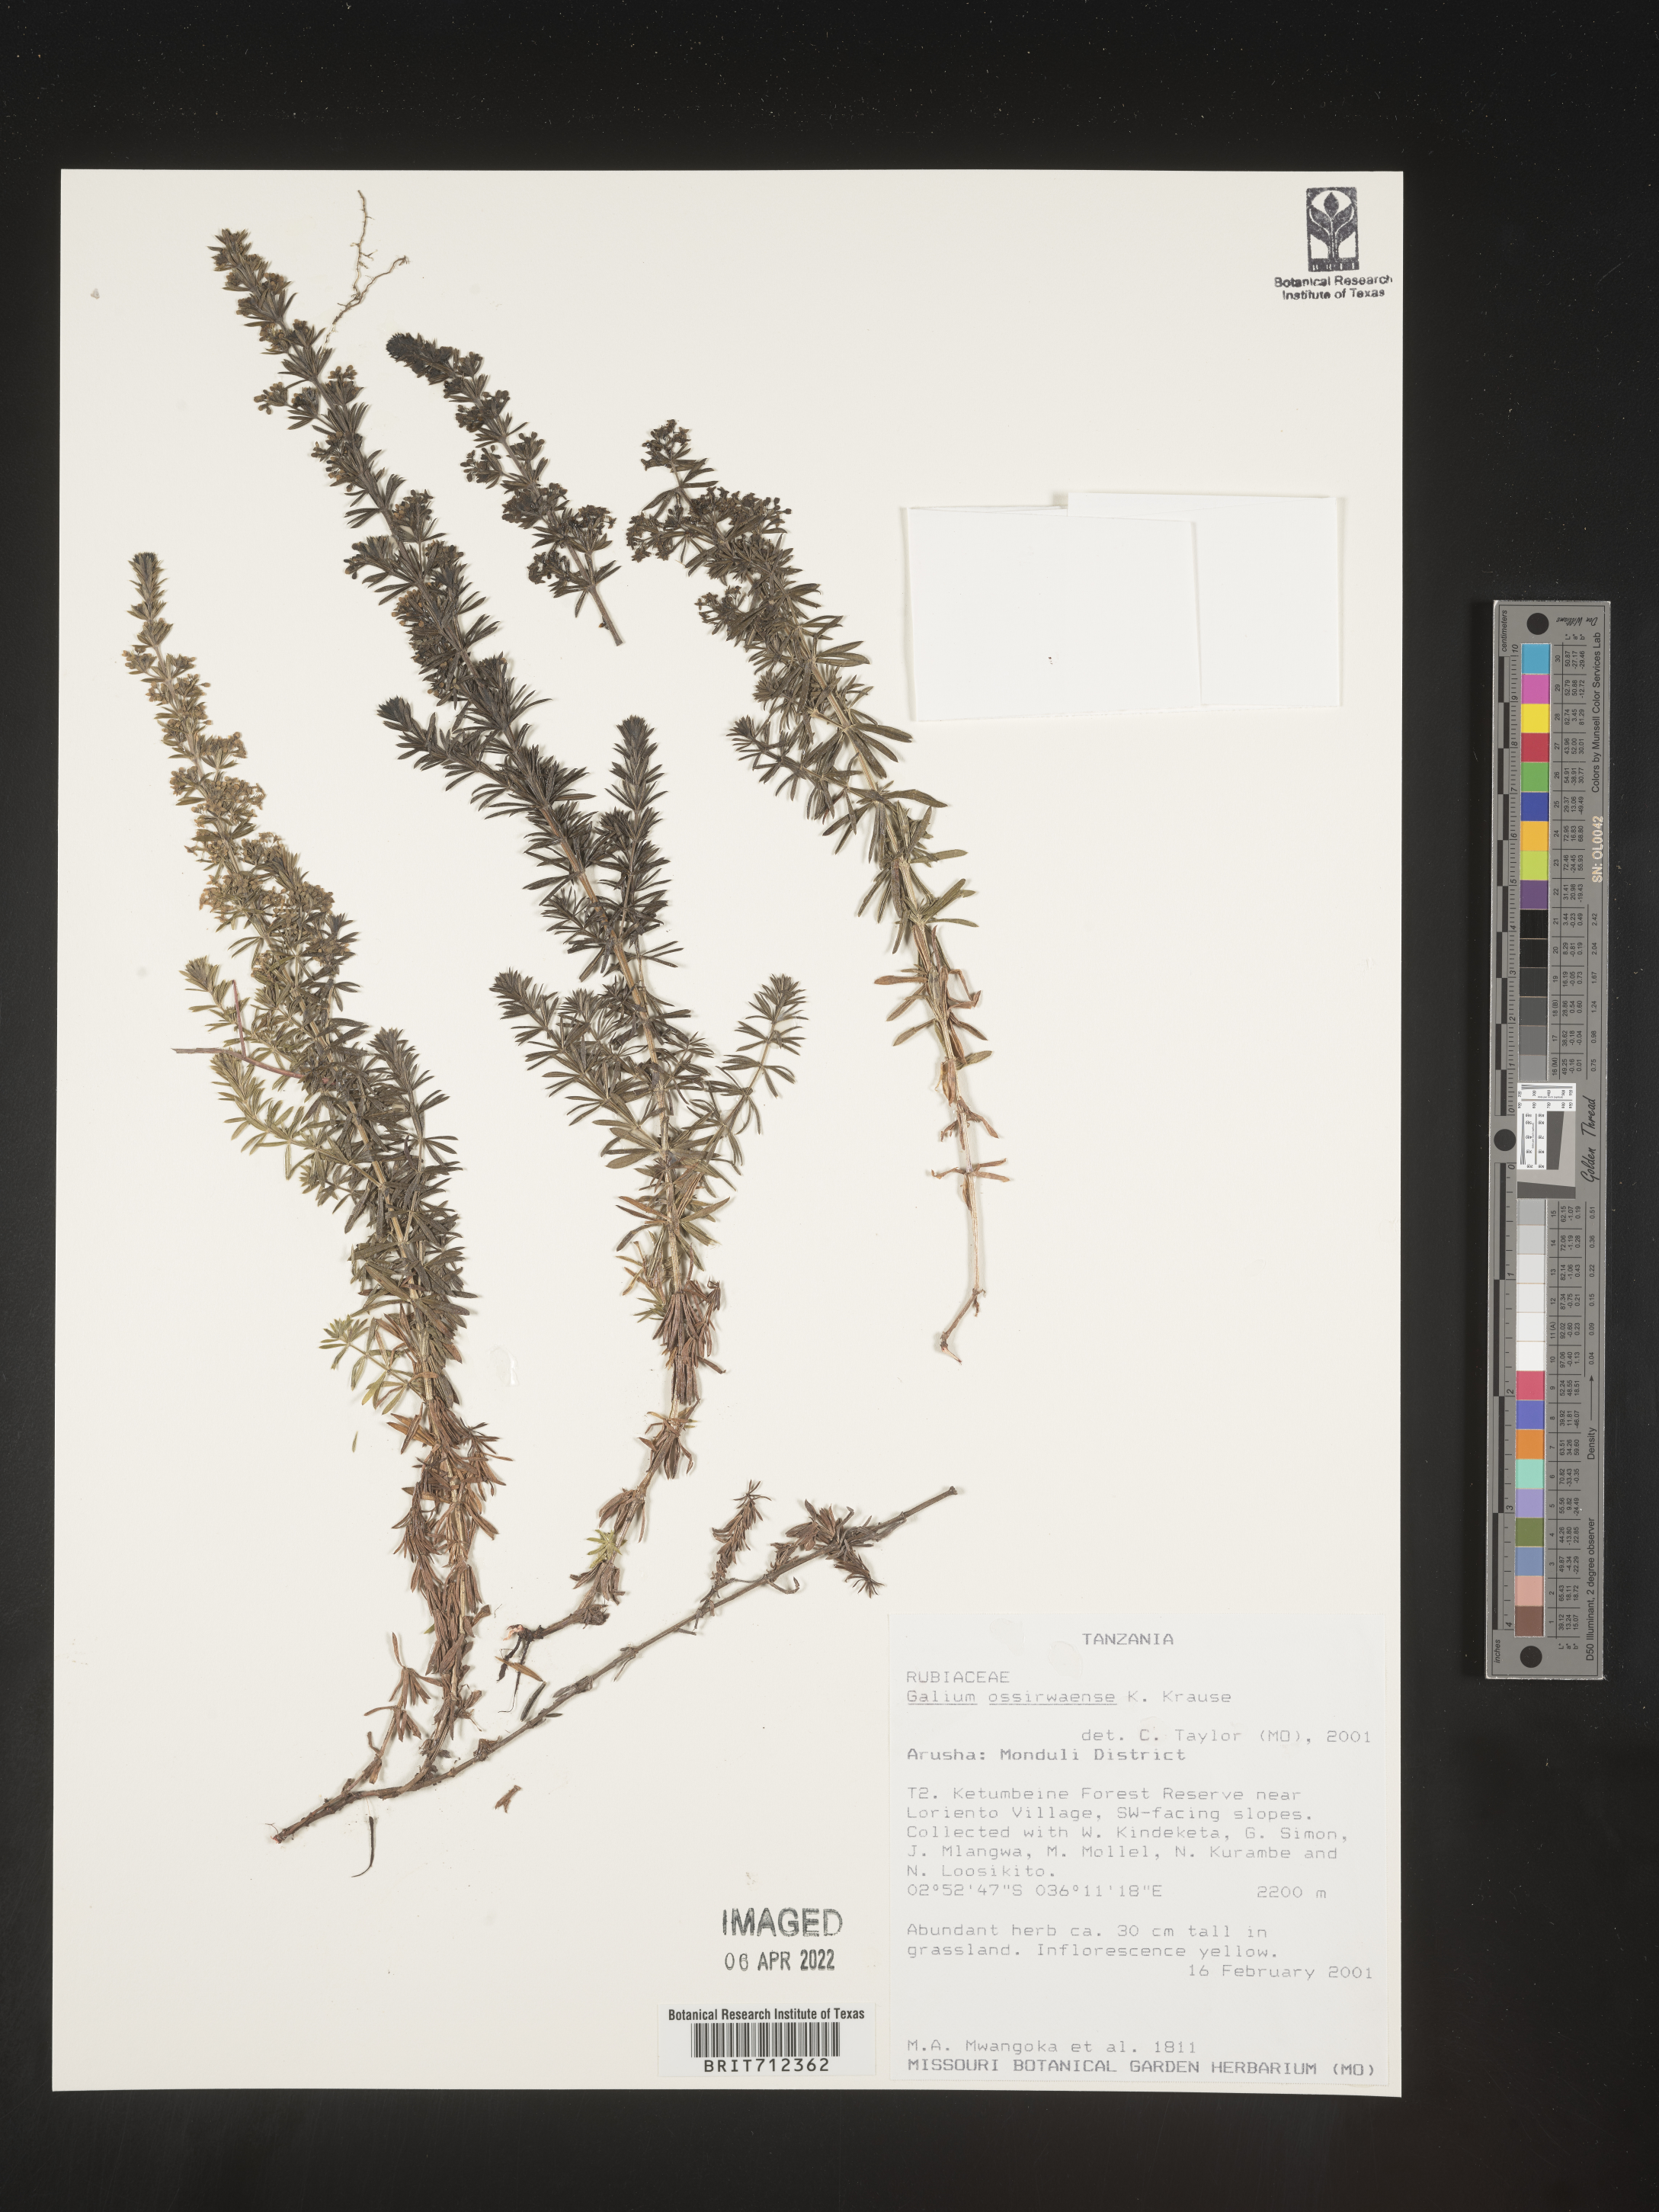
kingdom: Plantae
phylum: Tracheophyta
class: Magnoliopsida
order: Gentianales
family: Rubiaceae
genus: Galium
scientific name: Galium
